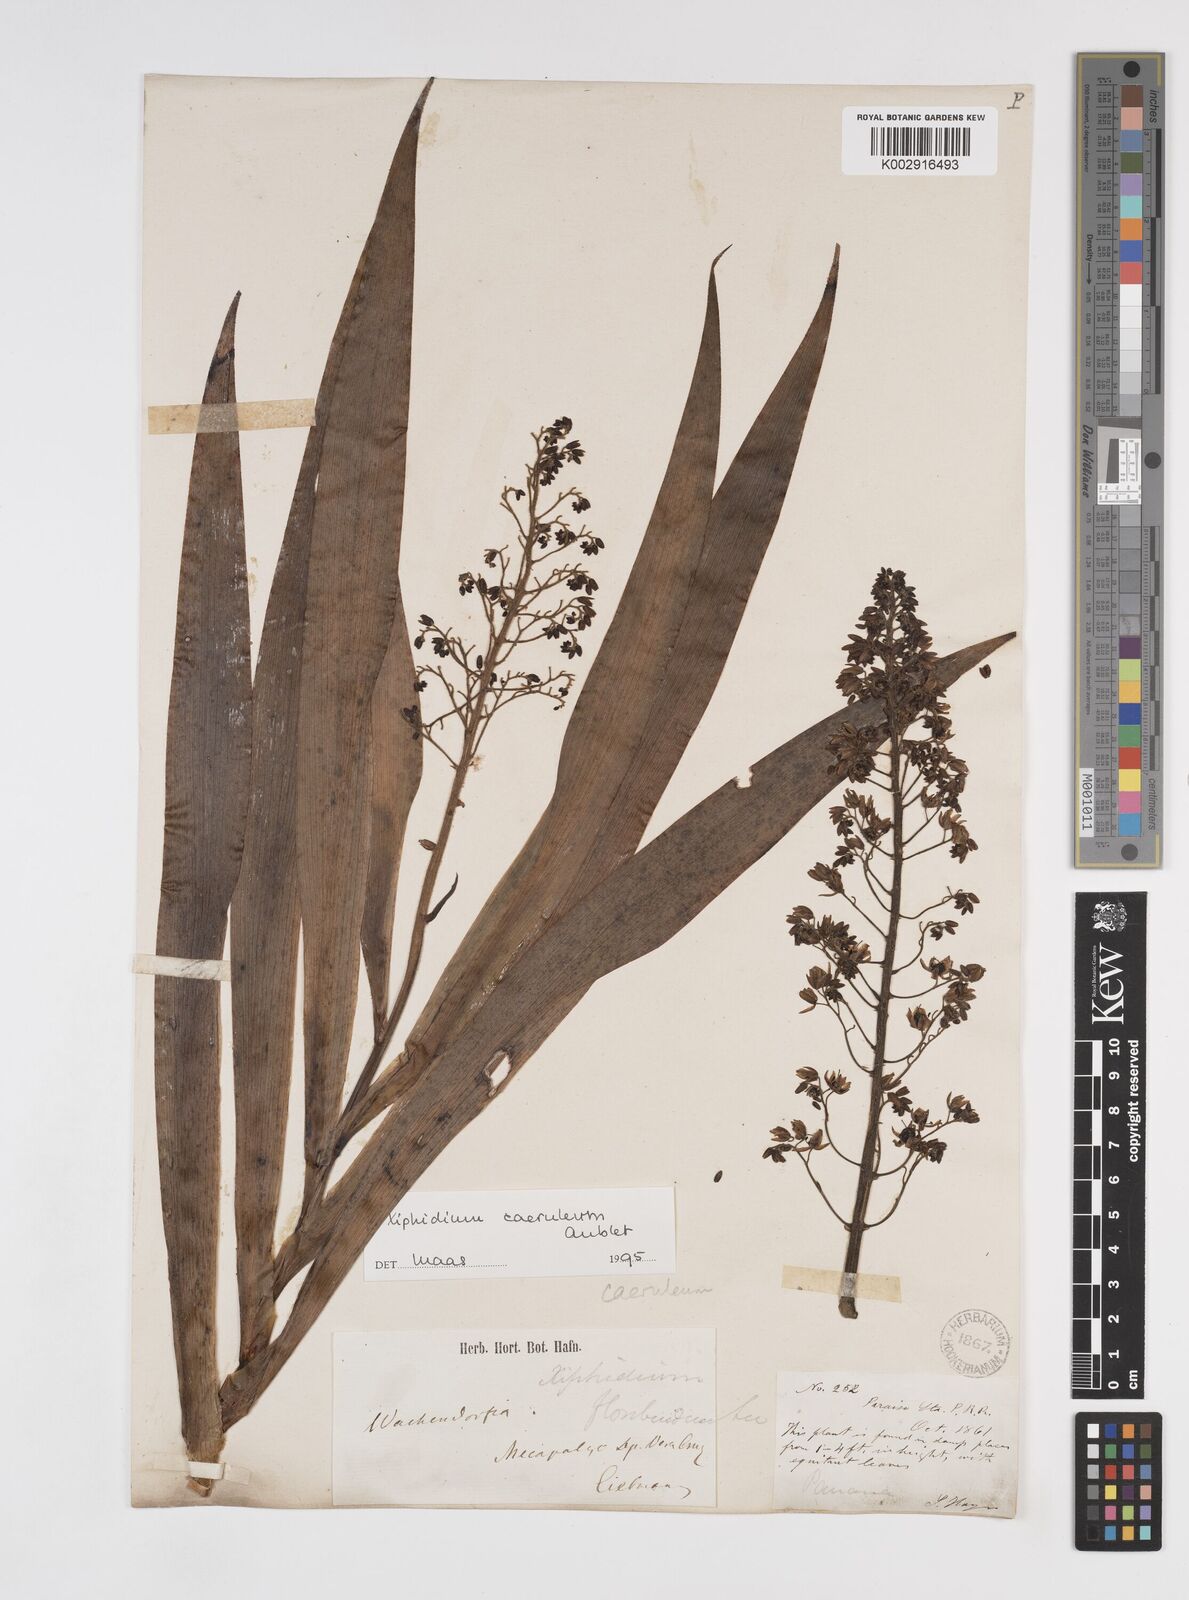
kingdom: Plantae
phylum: Tracheophyta
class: Liliopsida
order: Commelinales
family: Haemodoraceae
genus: Xiphidium
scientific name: Xiphidium caeruleum
